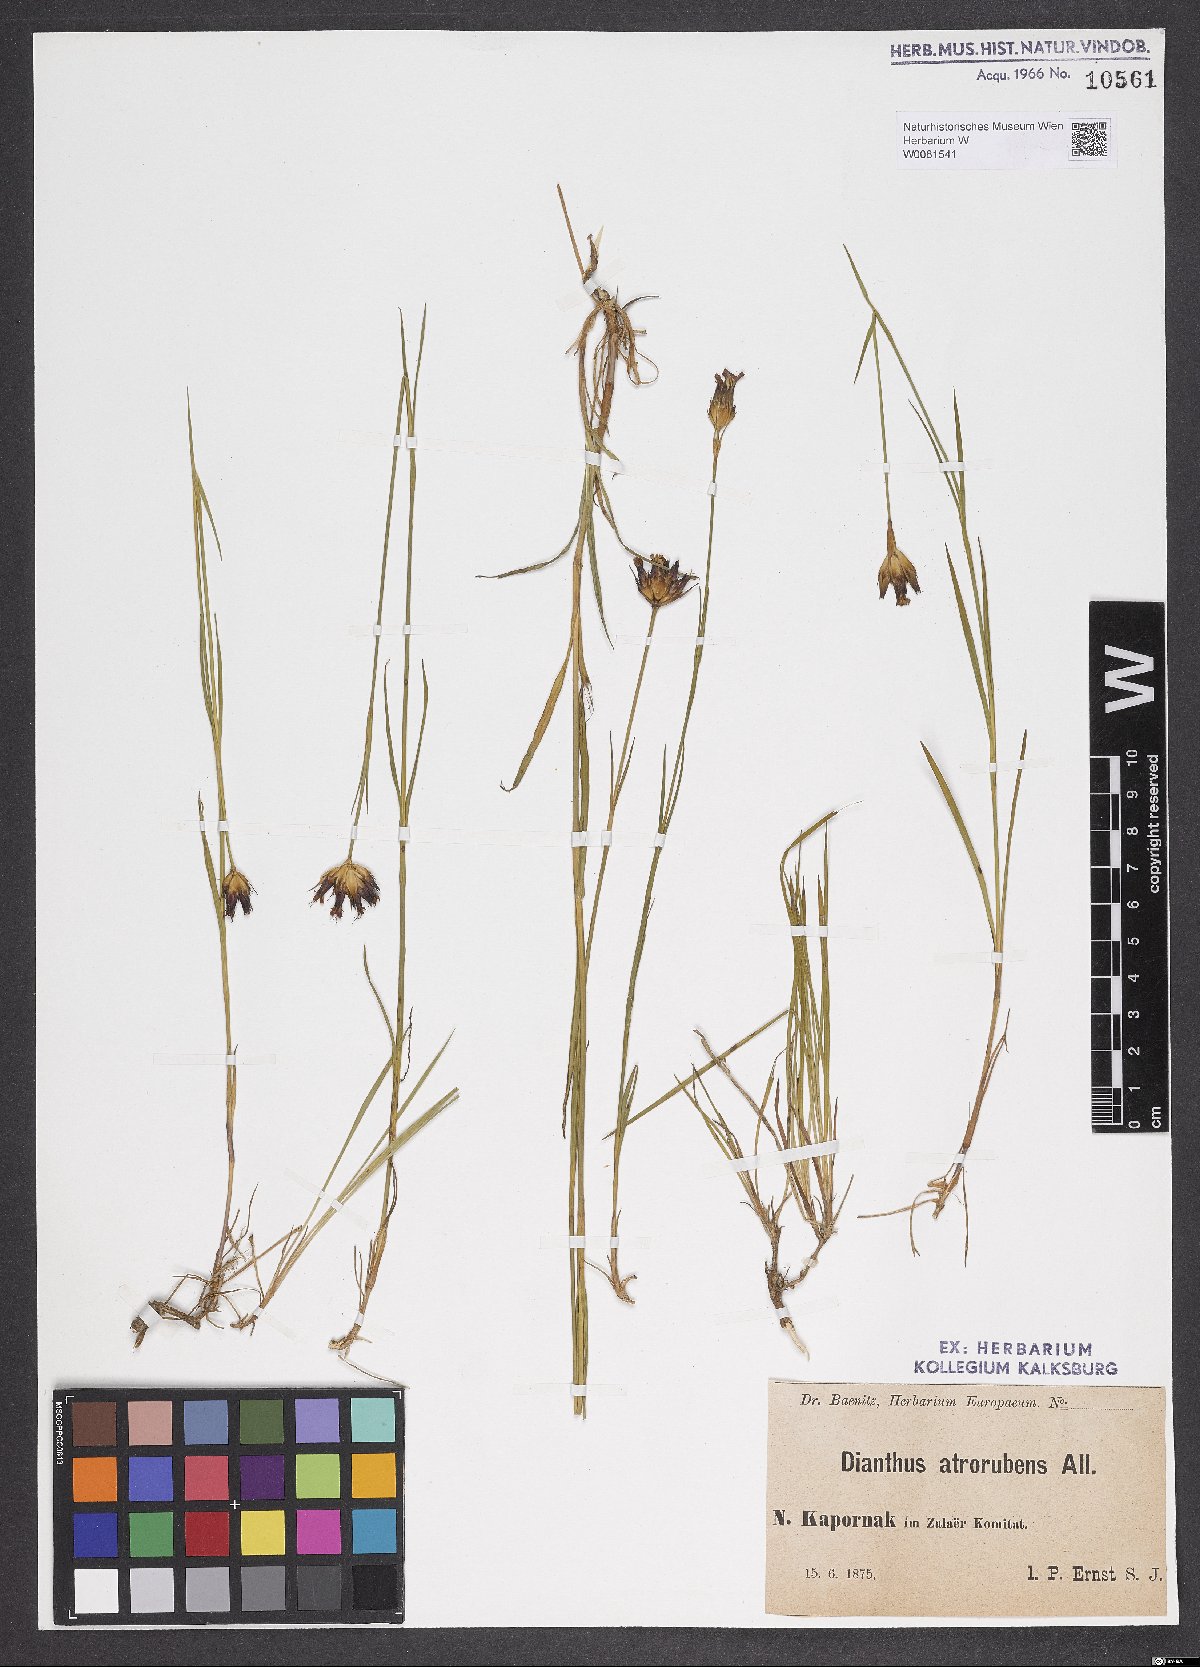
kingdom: Plantae
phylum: Tracheophyta
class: Magnoliopsida
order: Caryophyllales
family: Caryophyllaceae
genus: Dianthus
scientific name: Dianthus carthusianorum
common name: Carthusian pink
